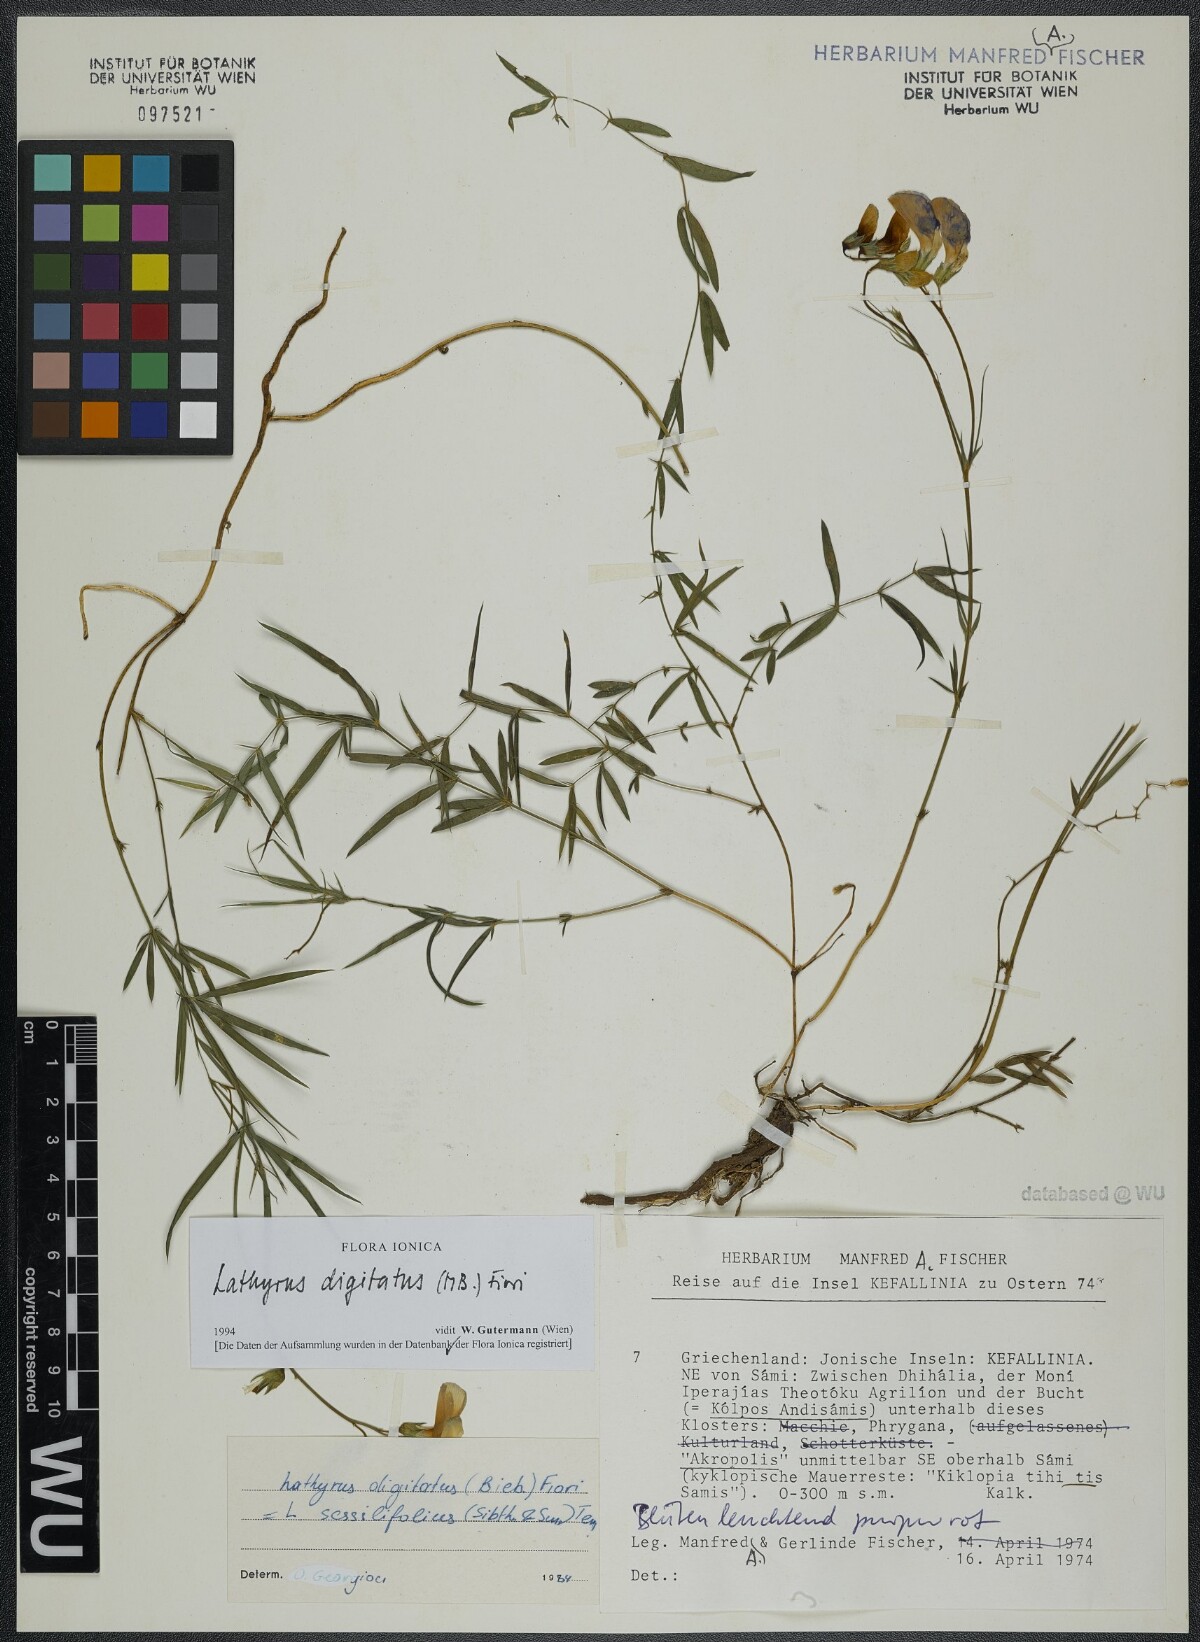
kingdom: Plantae
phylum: Tracheophyta
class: Magnoliopsida
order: Fabales
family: Fabaceae
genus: Lathyrus
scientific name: Lathyrus digitatus
